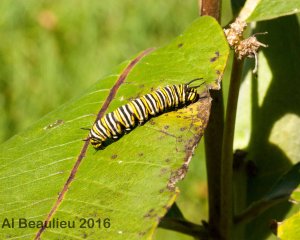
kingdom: Animalia
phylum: Arthropoda
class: Insecta
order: Lepidoptera
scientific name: Lepidoptera
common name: Butterflies
